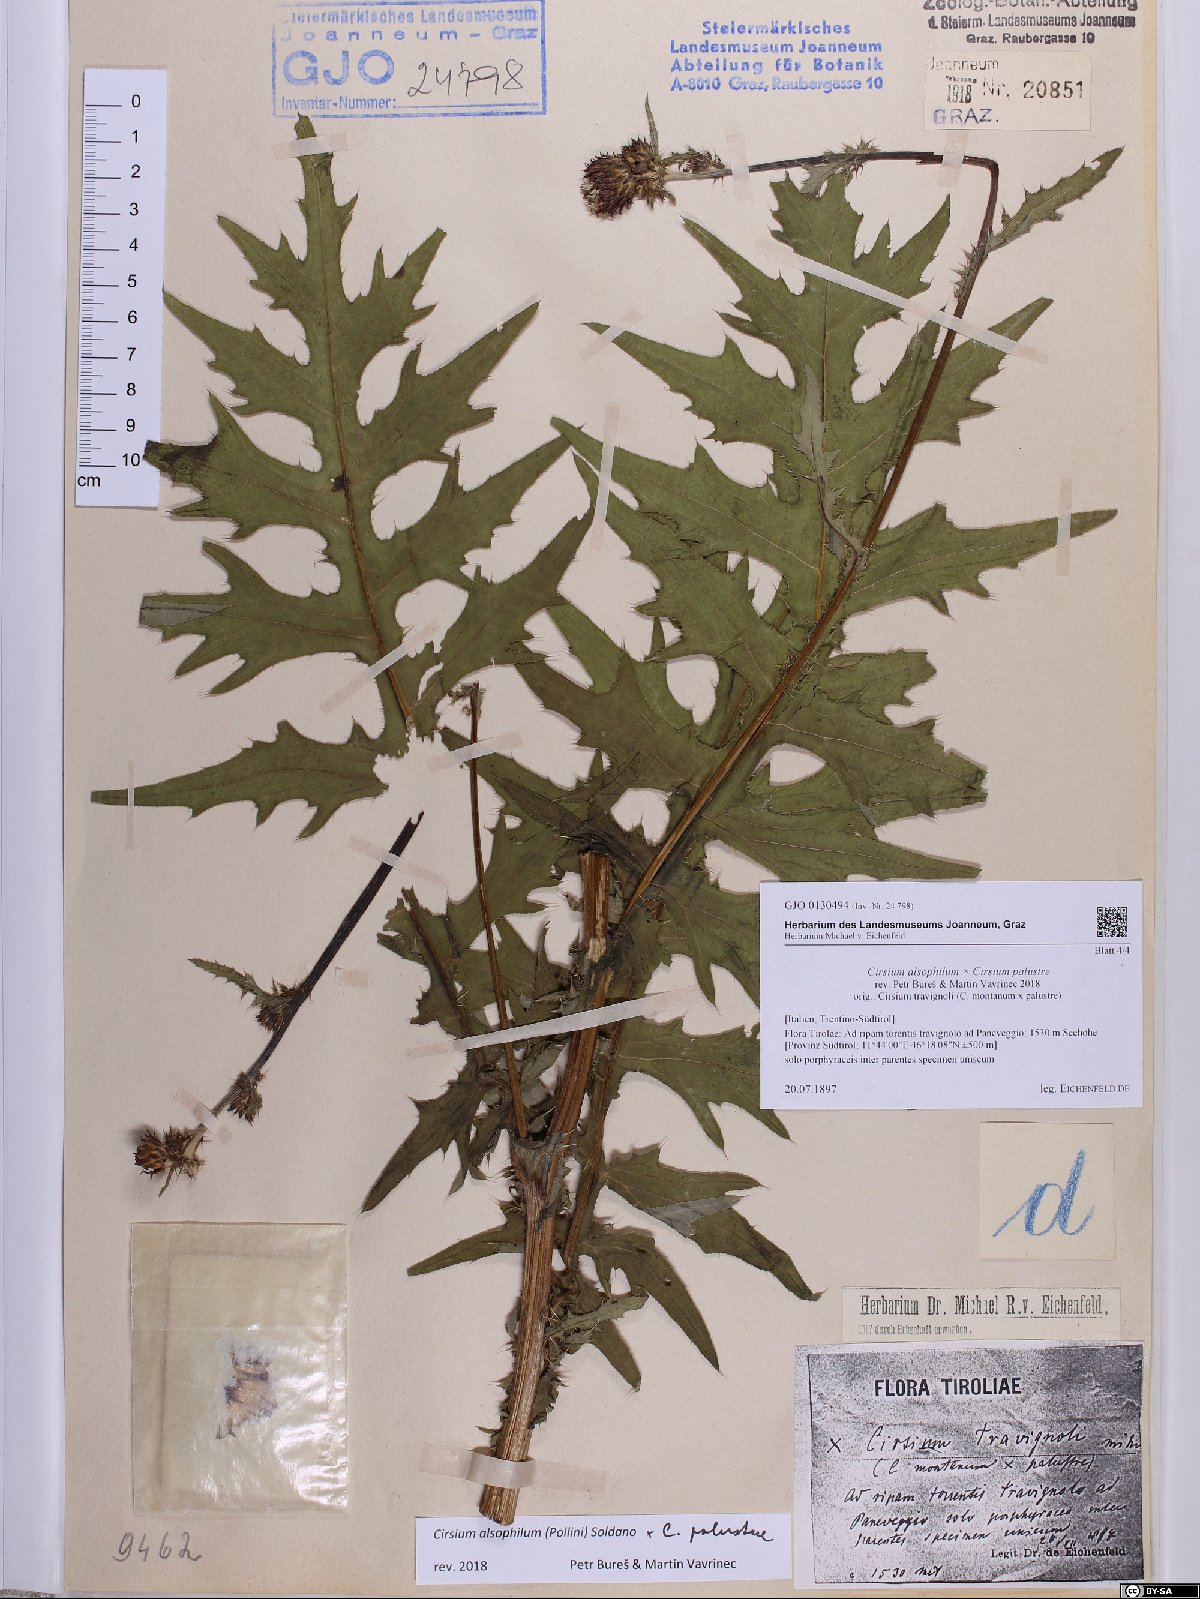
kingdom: Plantae
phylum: Tracheophyta
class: Magnoliopsida
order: Asterales
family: Asteraceae
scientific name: Asteraceae
